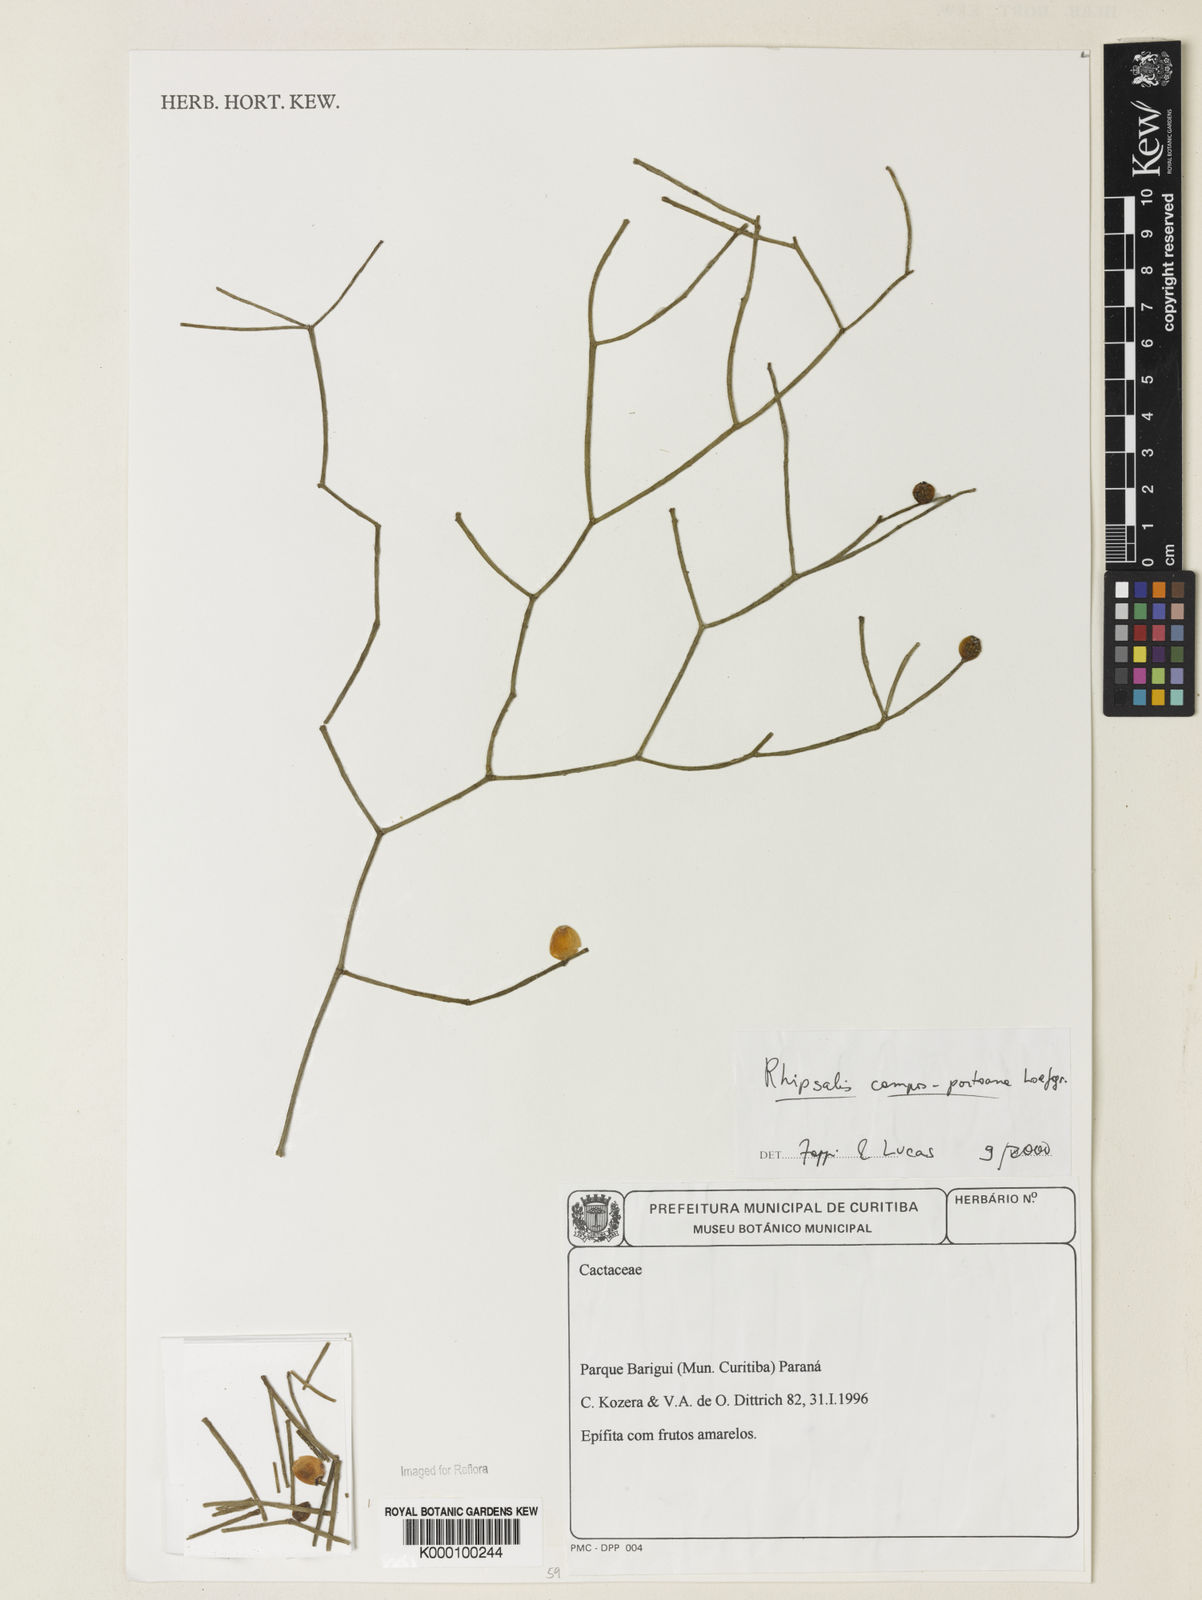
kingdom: Plantae
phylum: Tracheophyta
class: Magnoliopsida
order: Caryophyllales
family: Cactaceae
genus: Rhipsalis
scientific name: Rhipsalis campos-portoana
